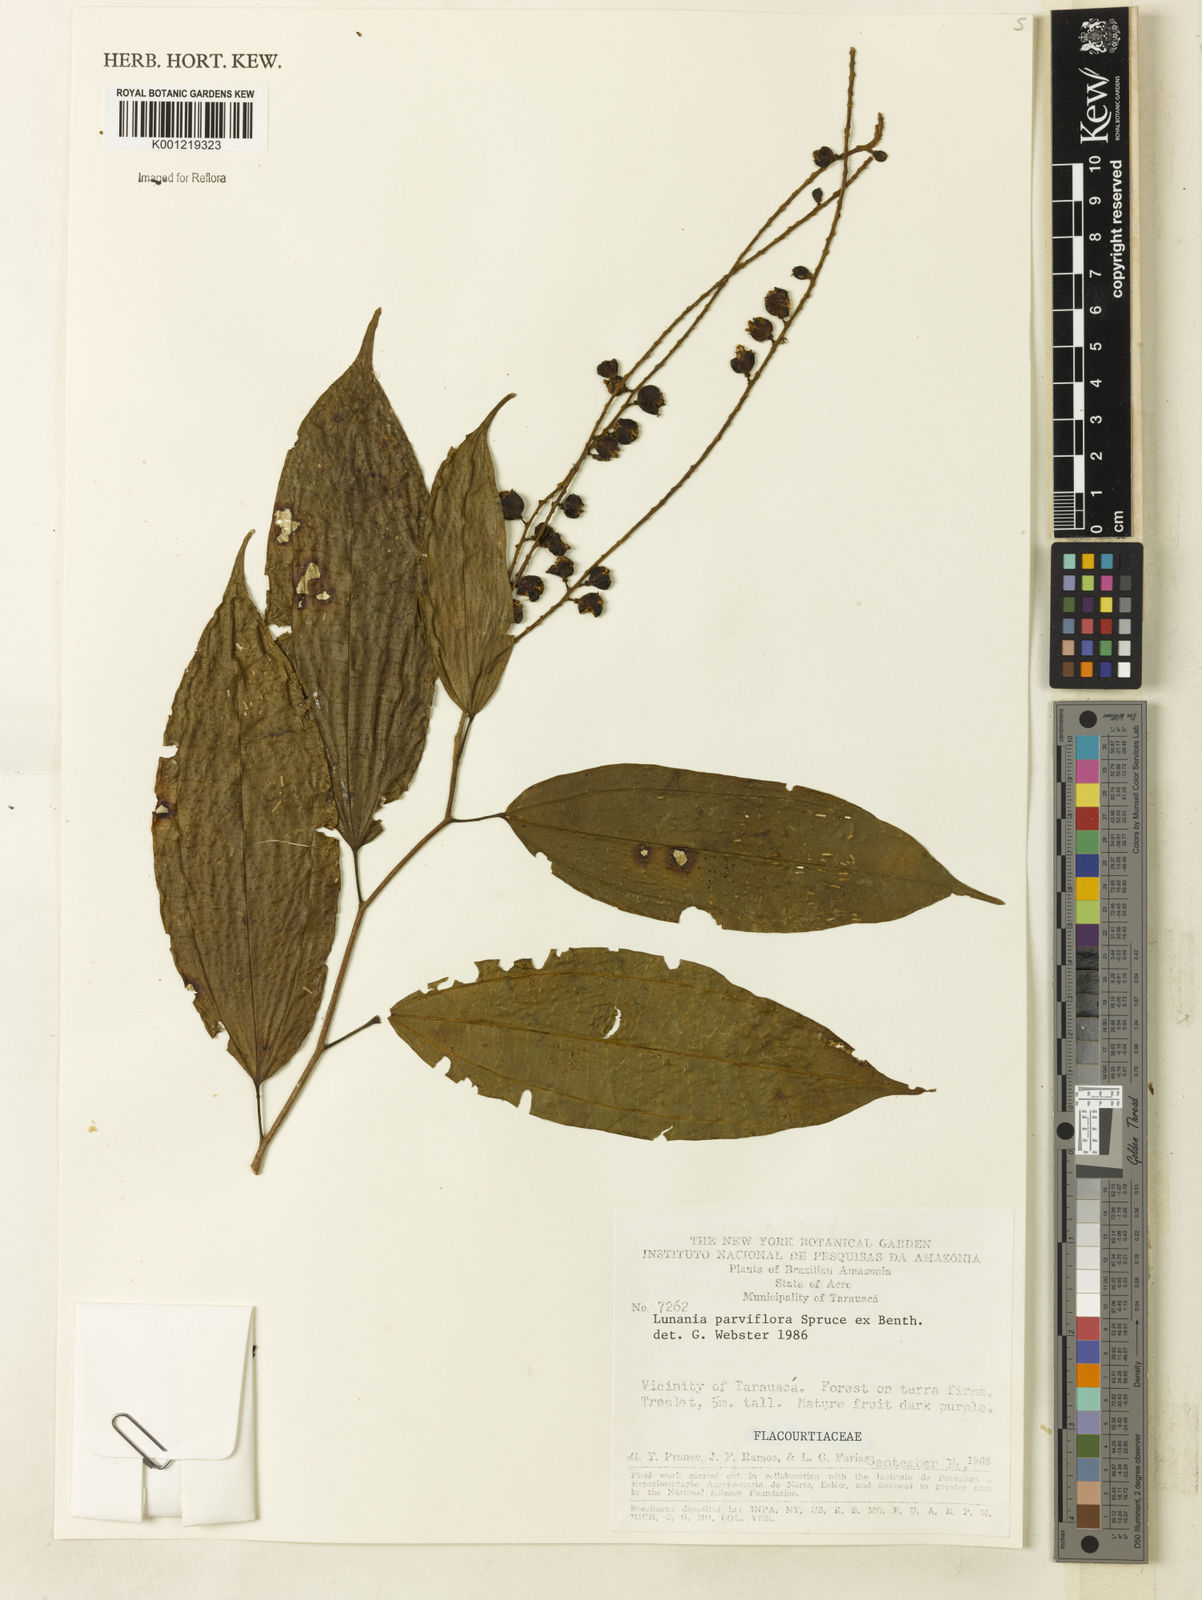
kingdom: Plantae
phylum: Tracheophyta
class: Magnoliopsida
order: Malpighiales
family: Salicaceae
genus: Lunania
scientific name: Lunania parviflora
